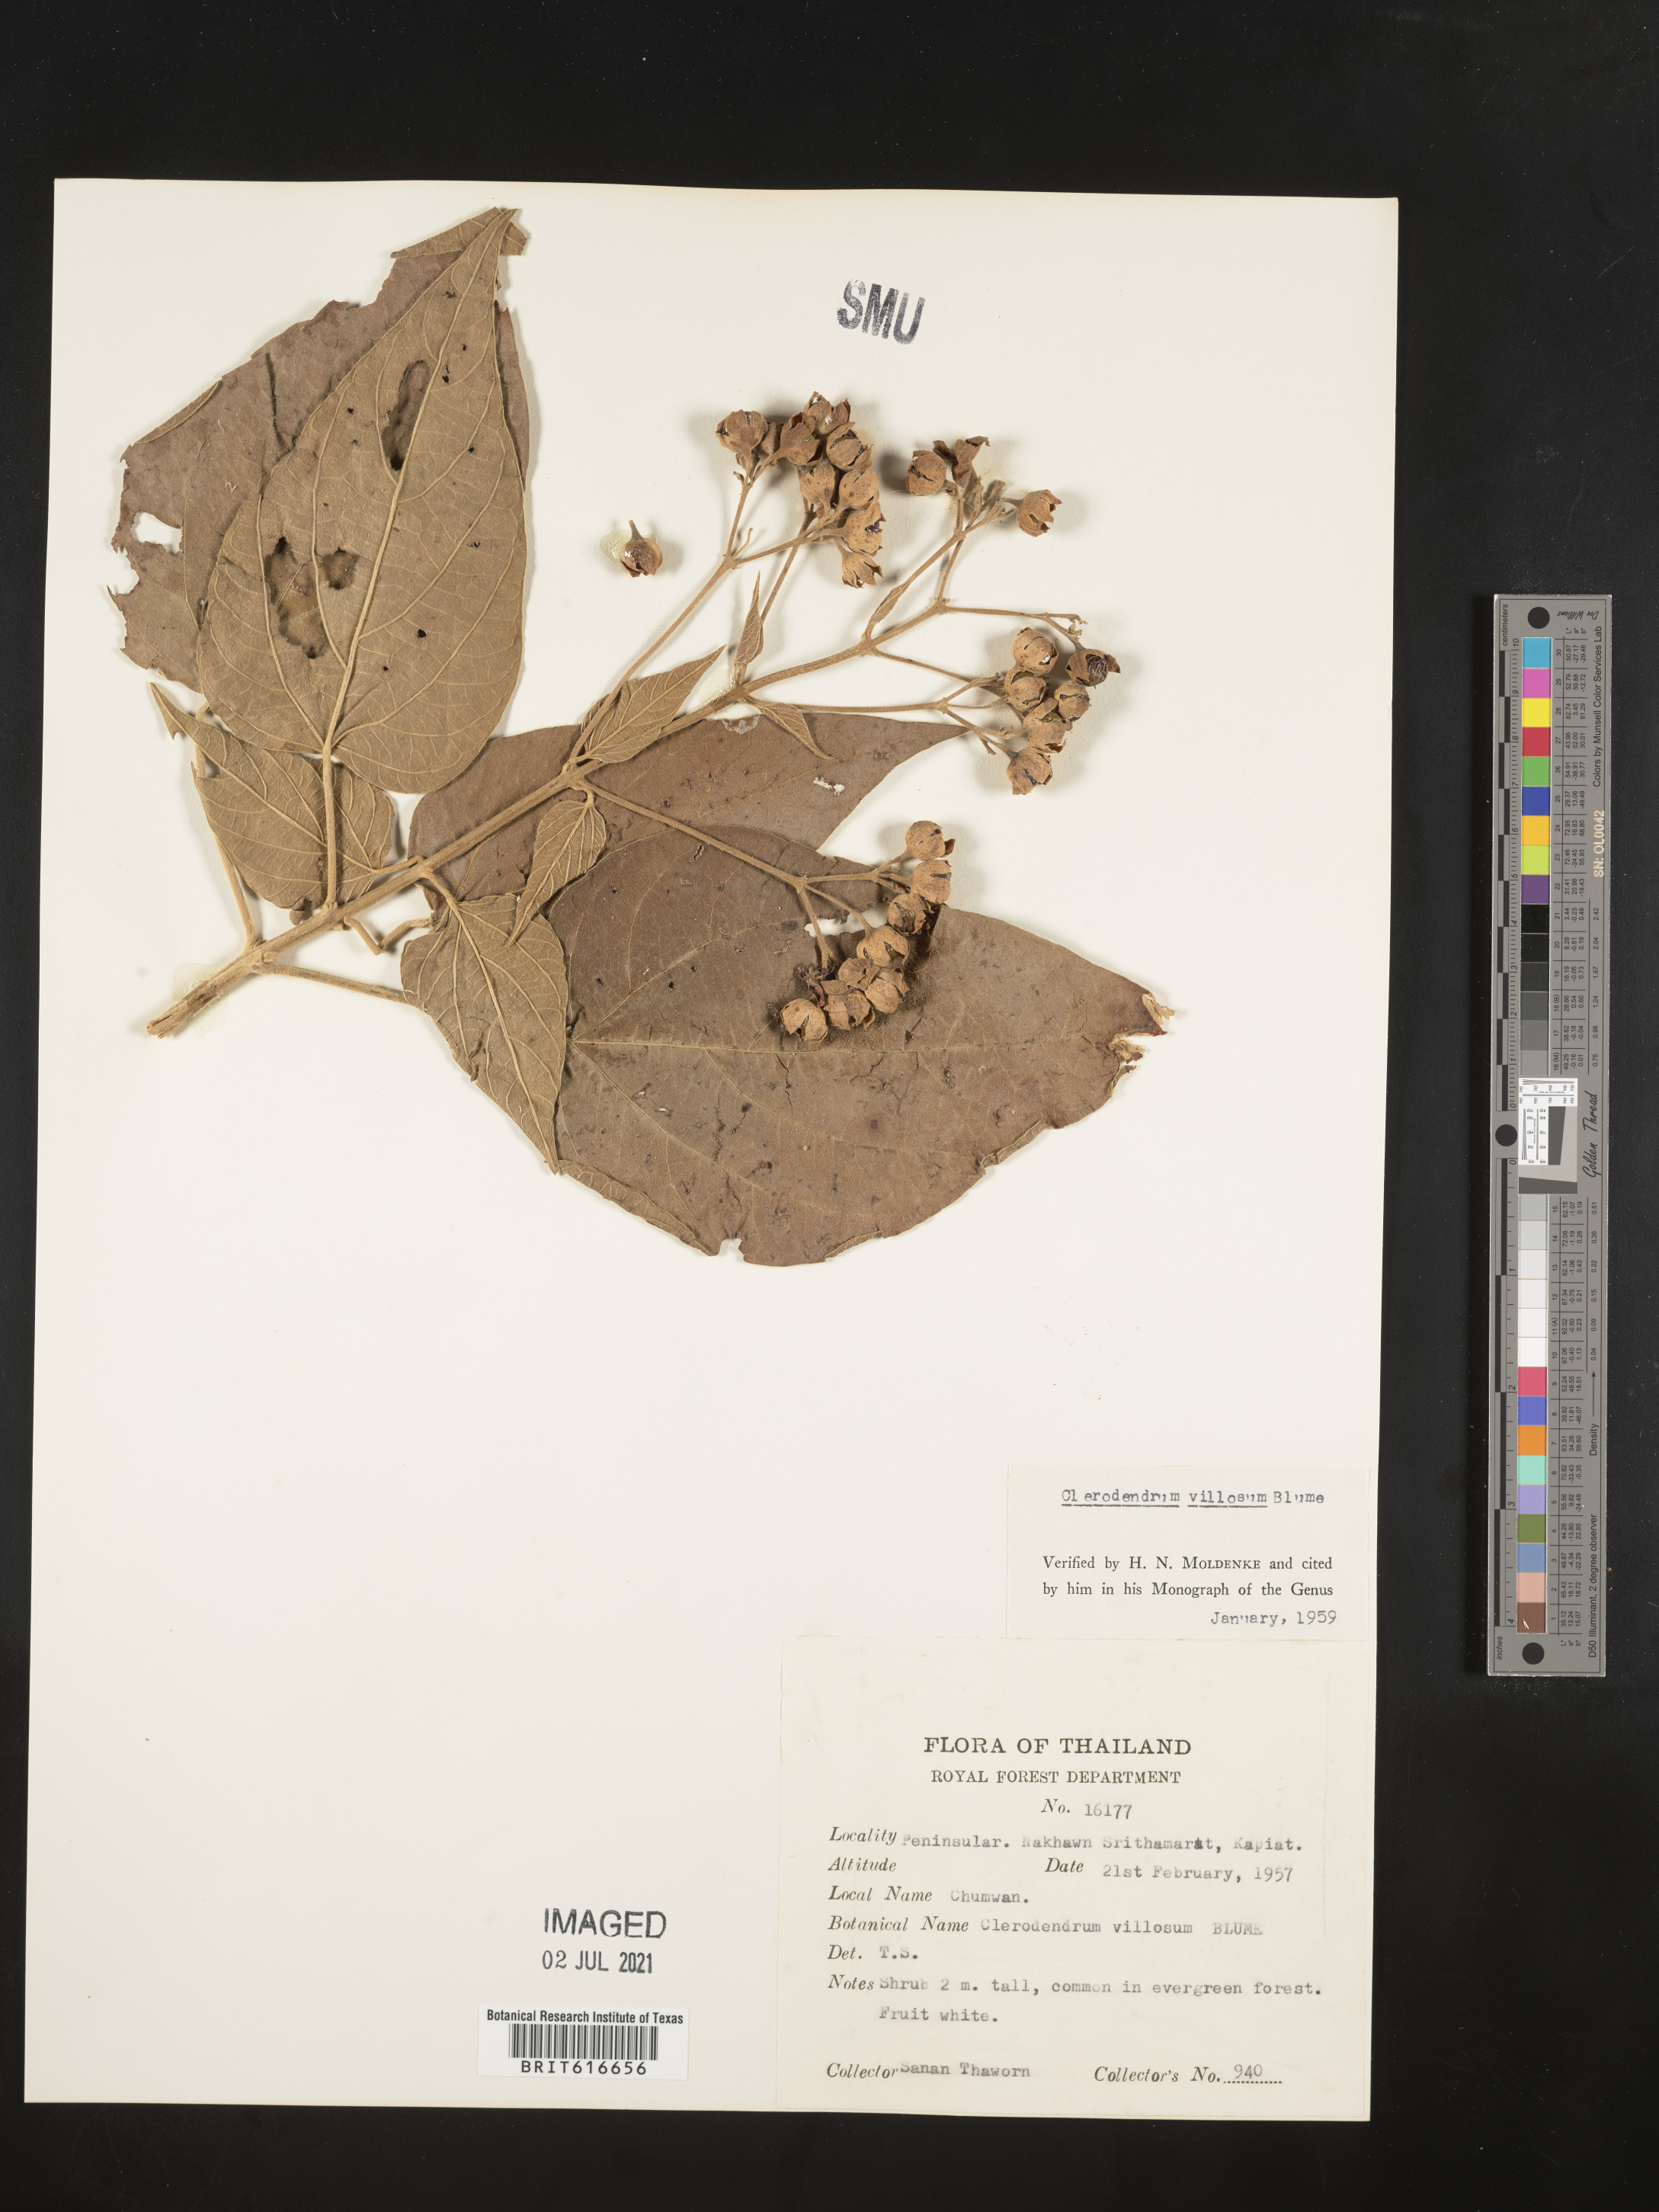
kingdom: Plantae
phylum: Tracheophyta
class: Magnoliopsida
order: Lamiales
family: Lamiaceae
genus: Rotheca
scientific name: Rotheca myricoides
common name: Cats-whiskers
